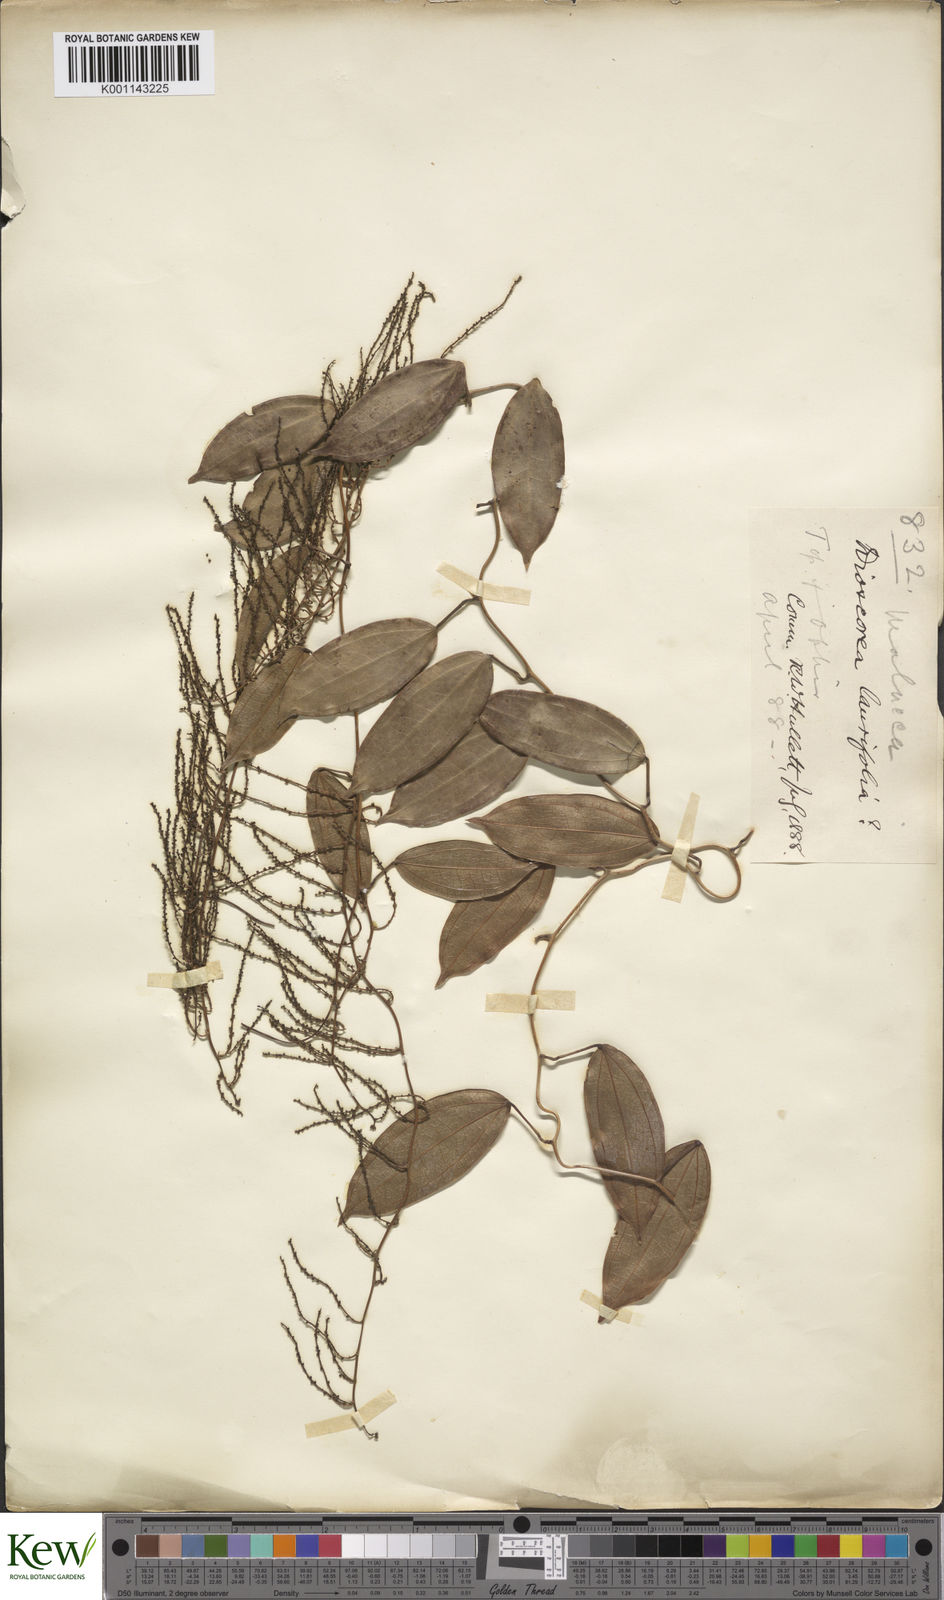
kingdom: Plantae
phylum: Tracheophyta
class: Liliopsida
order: Dioscoreales
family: Dioscoreaceae
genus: Dioscorea
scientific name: Dioscorea laurifolia
